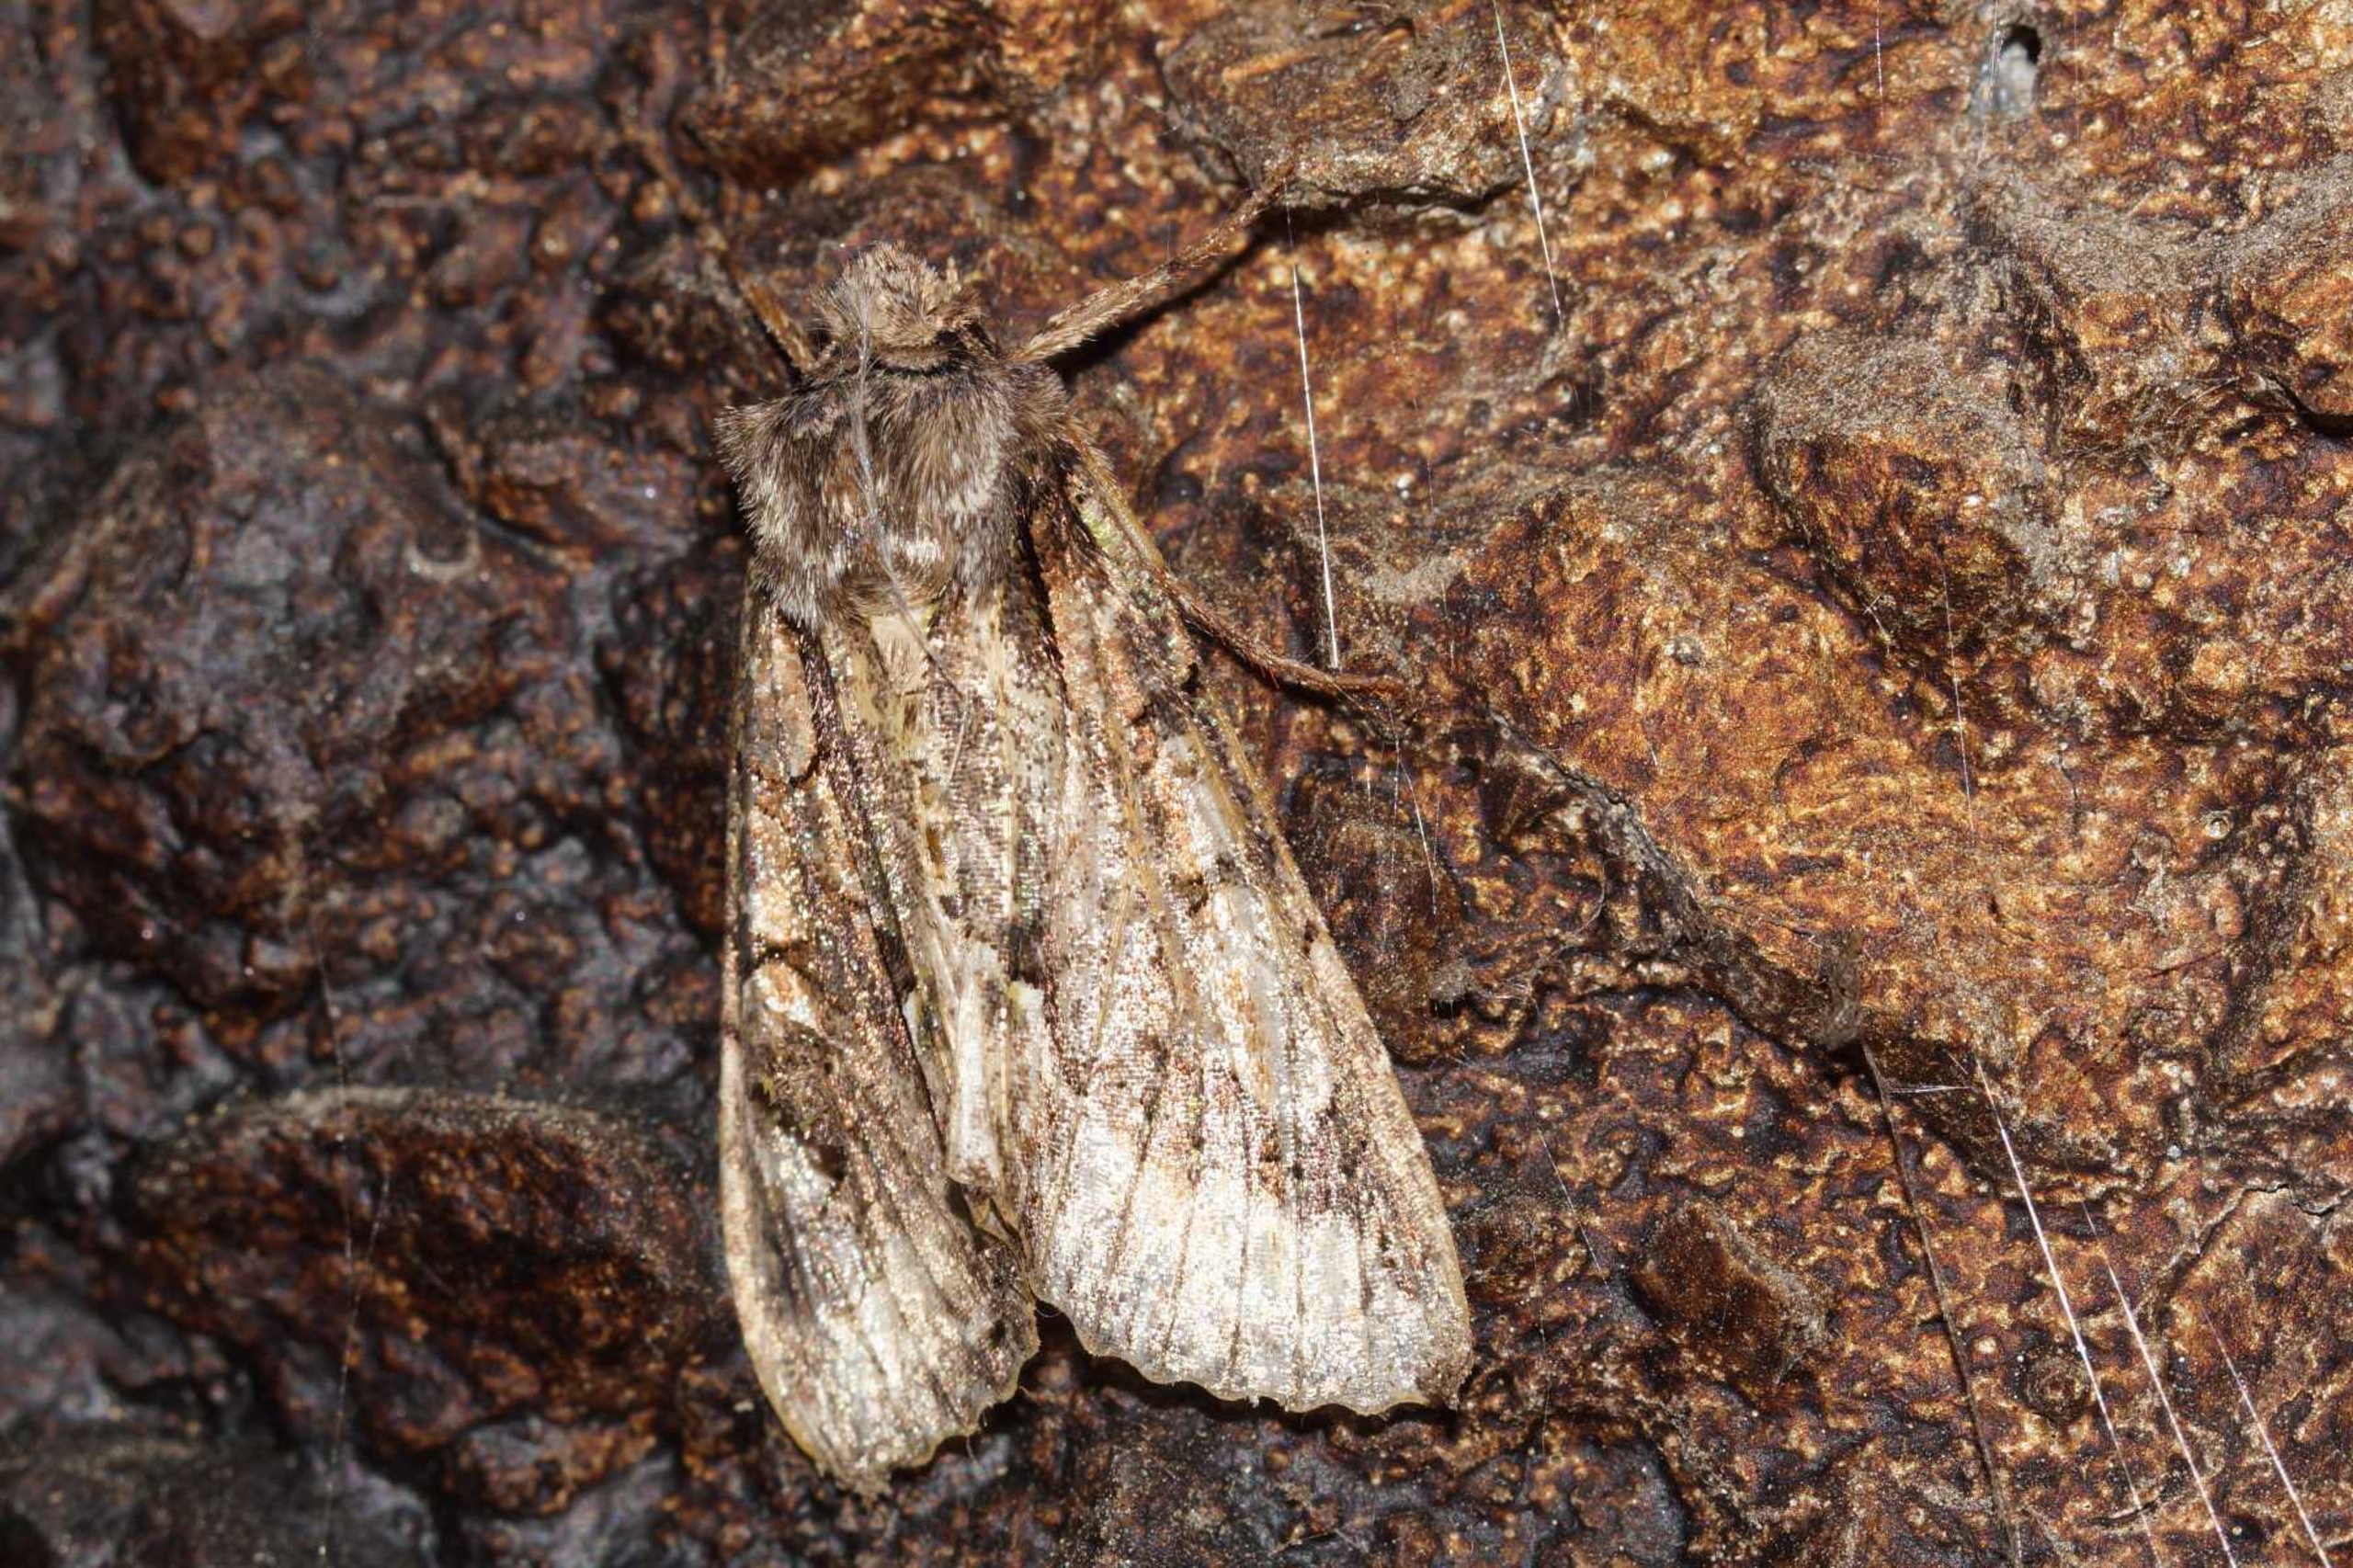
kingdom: Animalia
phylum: Arthropoda
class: Insecta
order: Lepidoptera
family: Noctuidae
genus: Allophyes
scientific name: Allophyes oxyacanthae
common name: Tjørneugle
